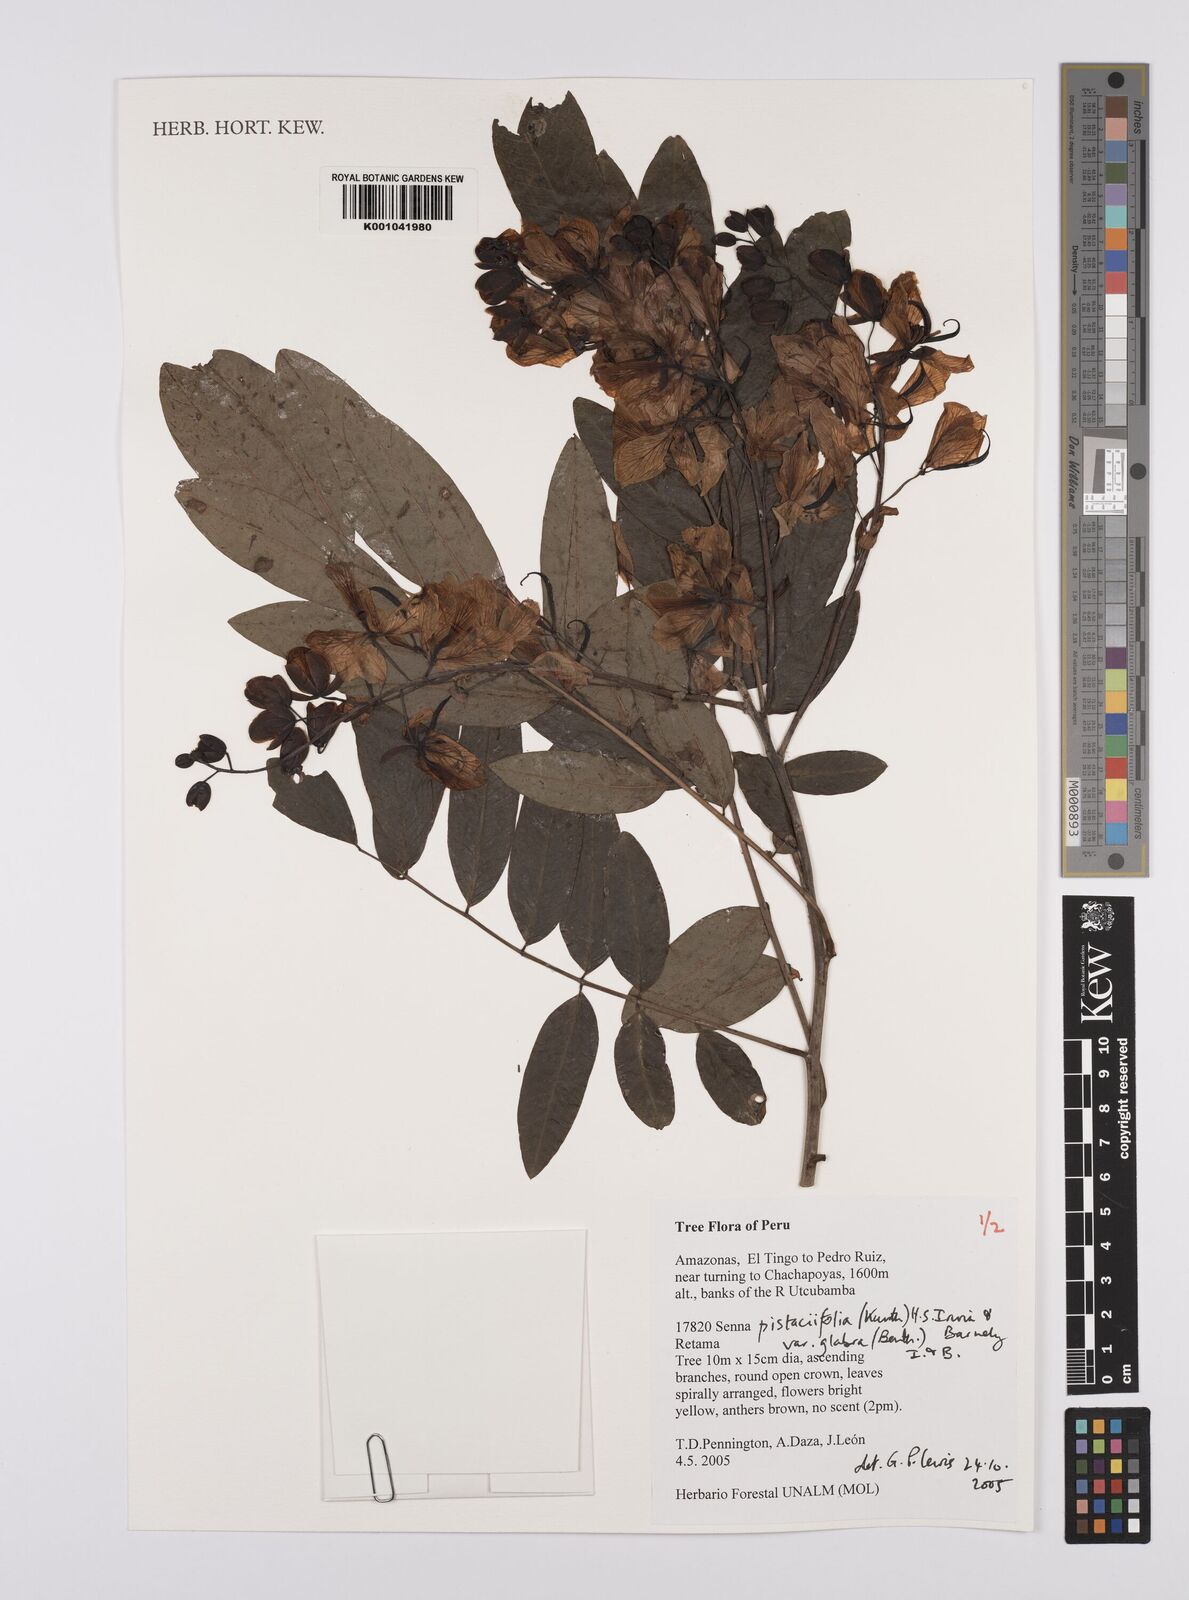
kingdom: Plantae
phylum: Tracheophyta
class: Magnoliopsida
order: Fabales
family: Fabaceae
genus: Senna
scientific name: Senna pistaciifolia
